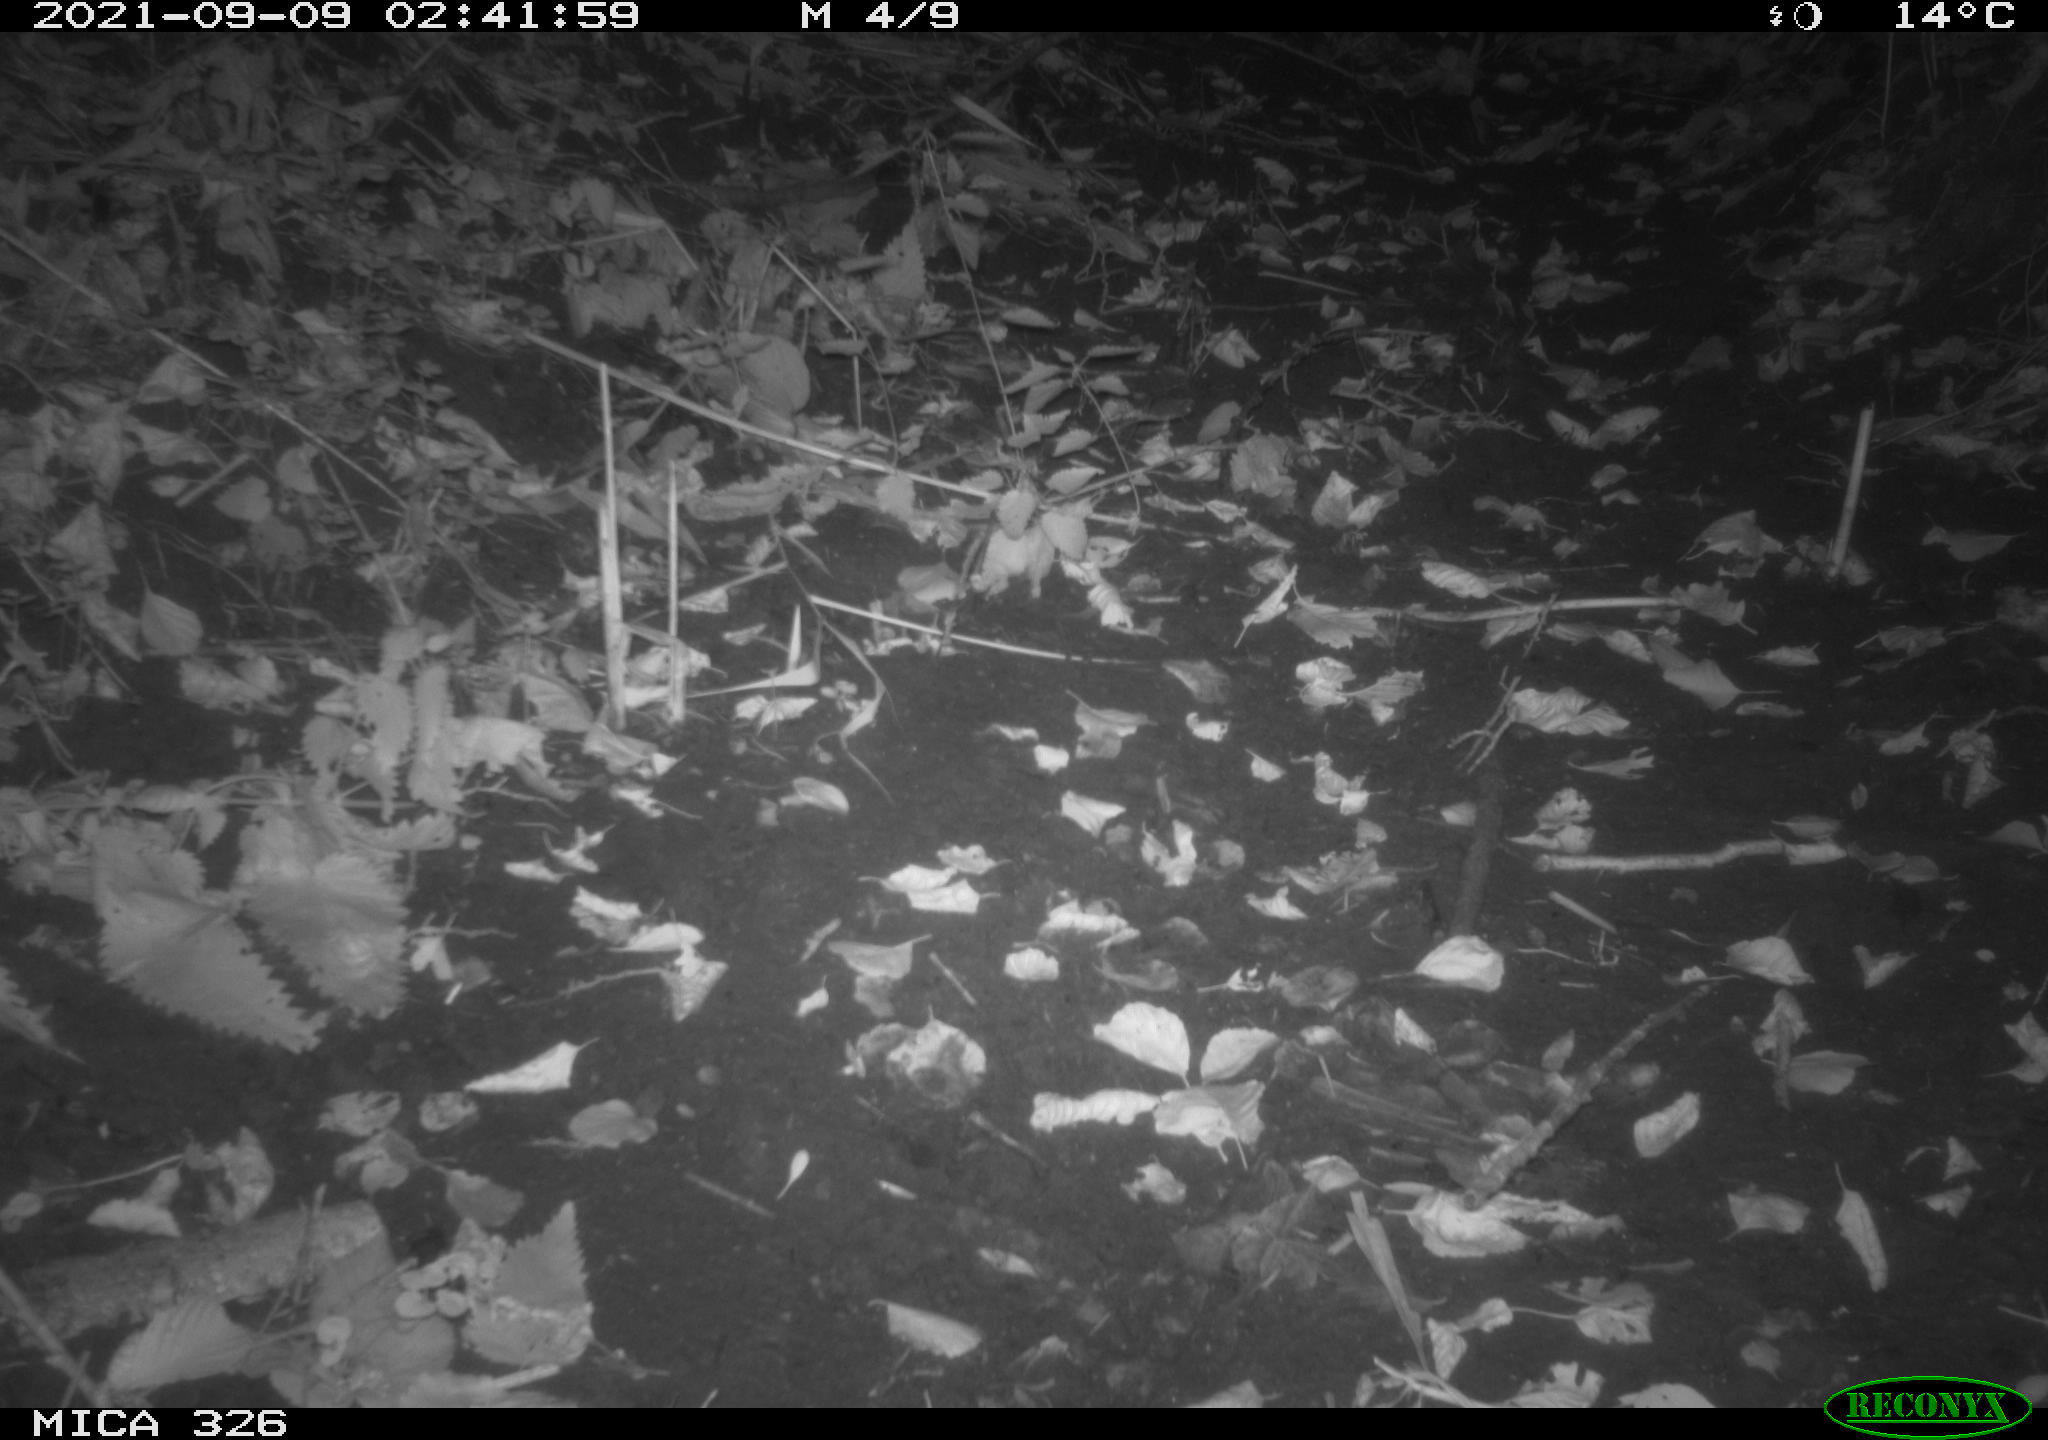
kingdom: Animalia
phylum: Chordata
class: Mammalia
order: Rodentia
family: Muridae
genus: Rattus
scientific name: Rattus norvegicus
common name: Brown rat
